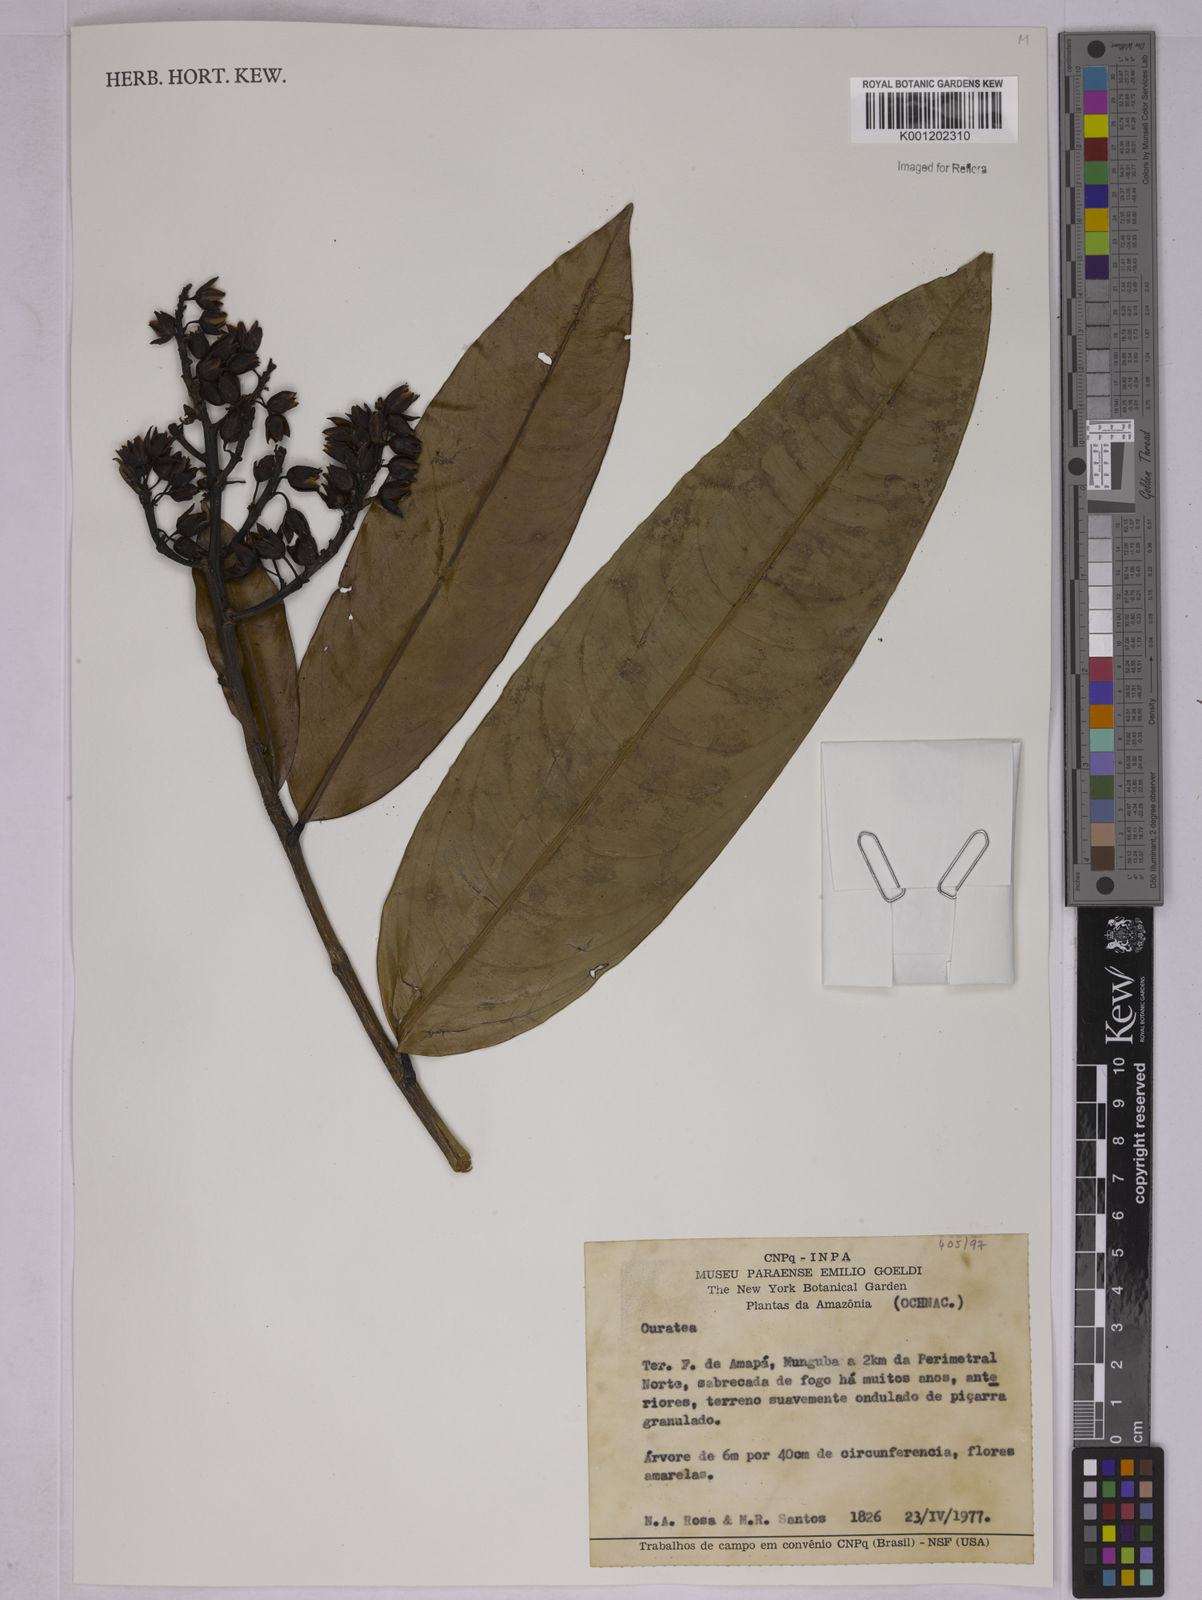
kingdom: Plantae
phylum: Tracheophyta
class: Magnoliopsida
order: Malpighiales
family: Ochnaceae
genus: Ouratea
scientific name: Ouratea
